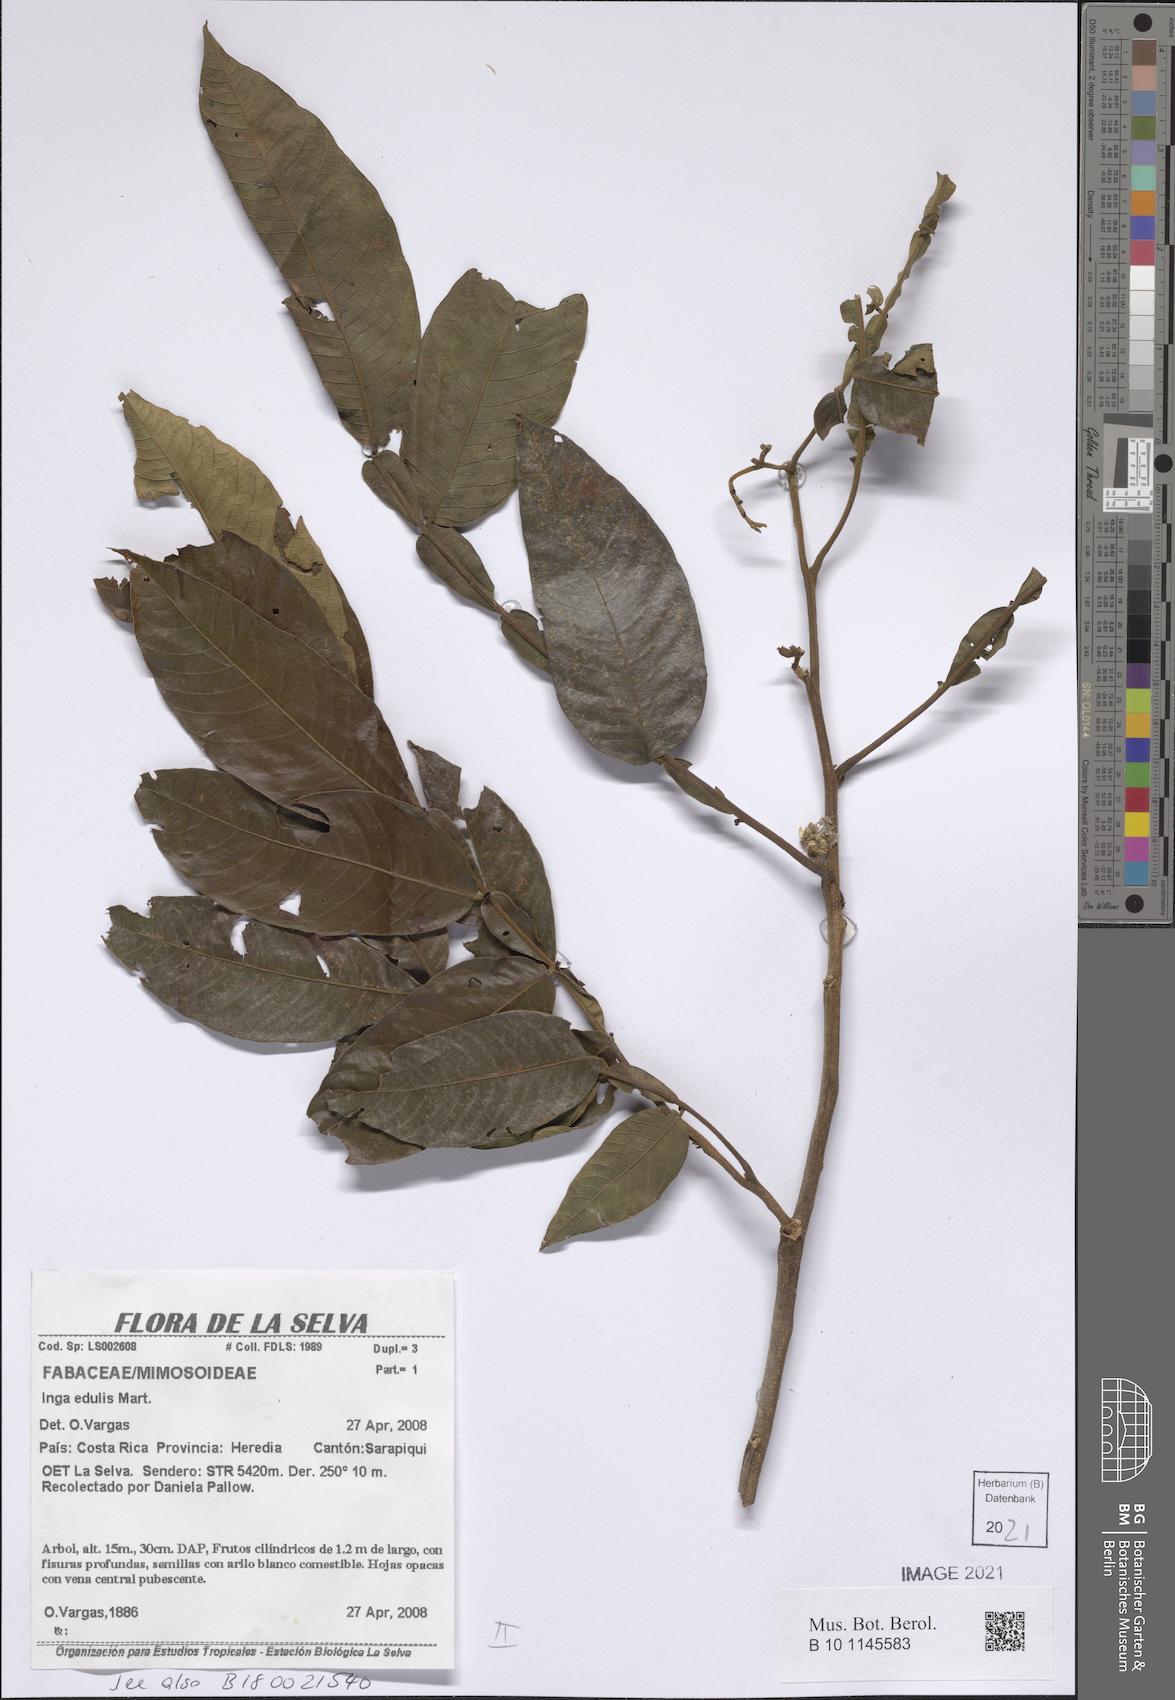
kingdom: Plantae
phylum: Tracheophyta
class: Magnoliopsida
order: Fabales
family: Fabaceae
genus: Inga
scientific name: Inga edulis
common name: Ice cream bean
